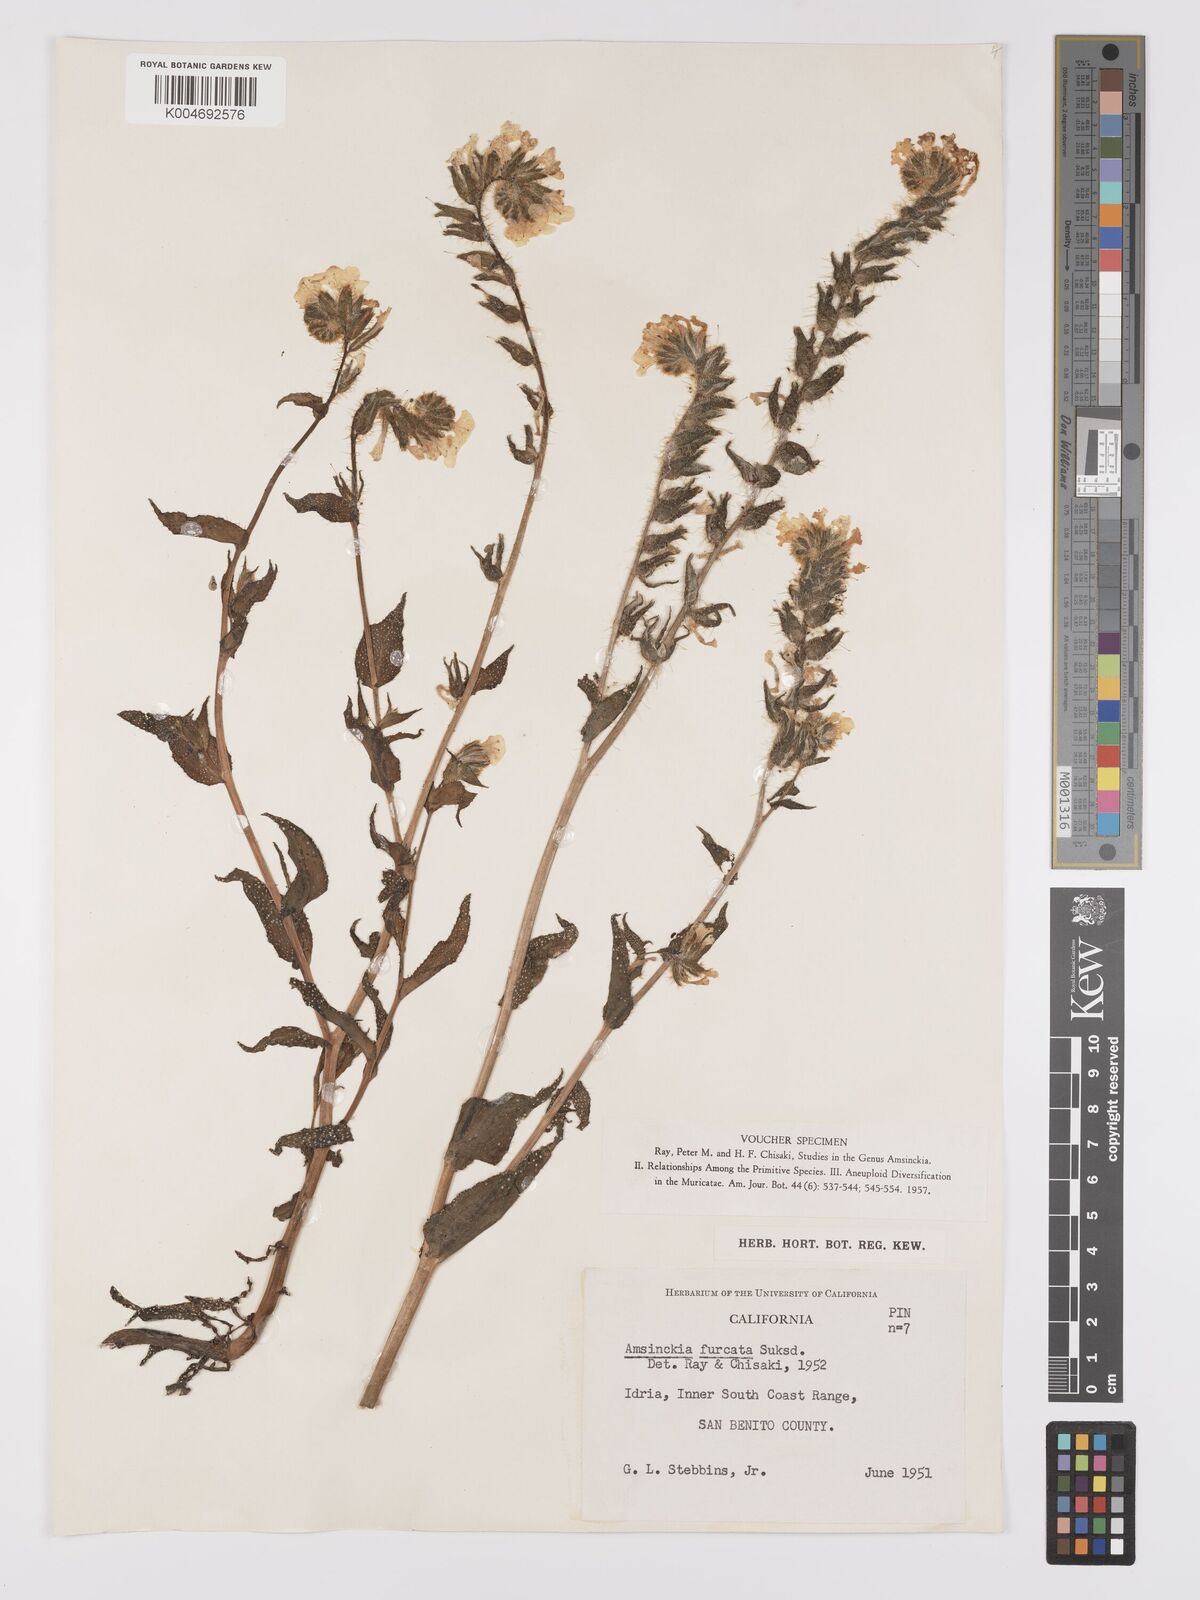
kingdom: Plantae
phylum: Tracheophyta
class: Magnoliopsida
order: Boraginales
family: Boraginaceae
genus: Amsinckia
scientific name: Amsinckia vernicosa
